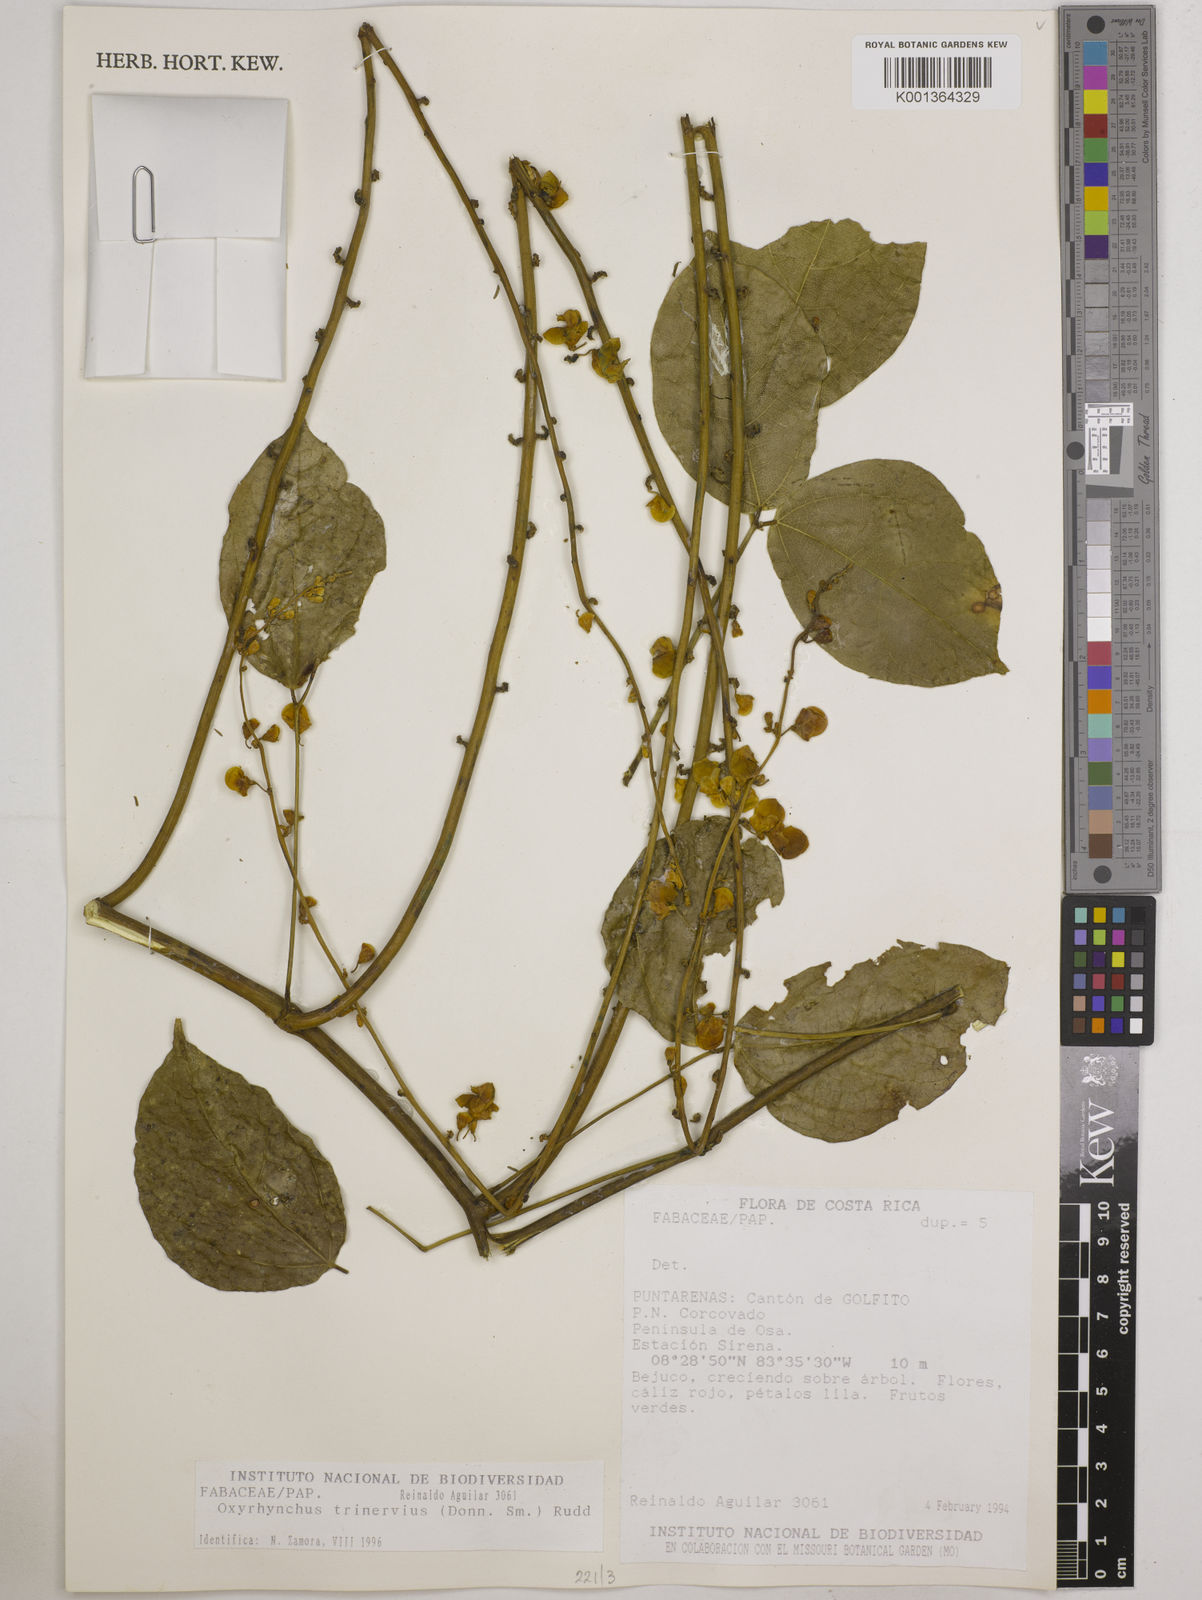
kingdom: Plantae
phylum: Tracheophyta
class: Magnoliopsida
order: Fabales
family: Fabaceae
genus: Oxyrhynchus
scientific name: Oxyrhynchus trinervius
